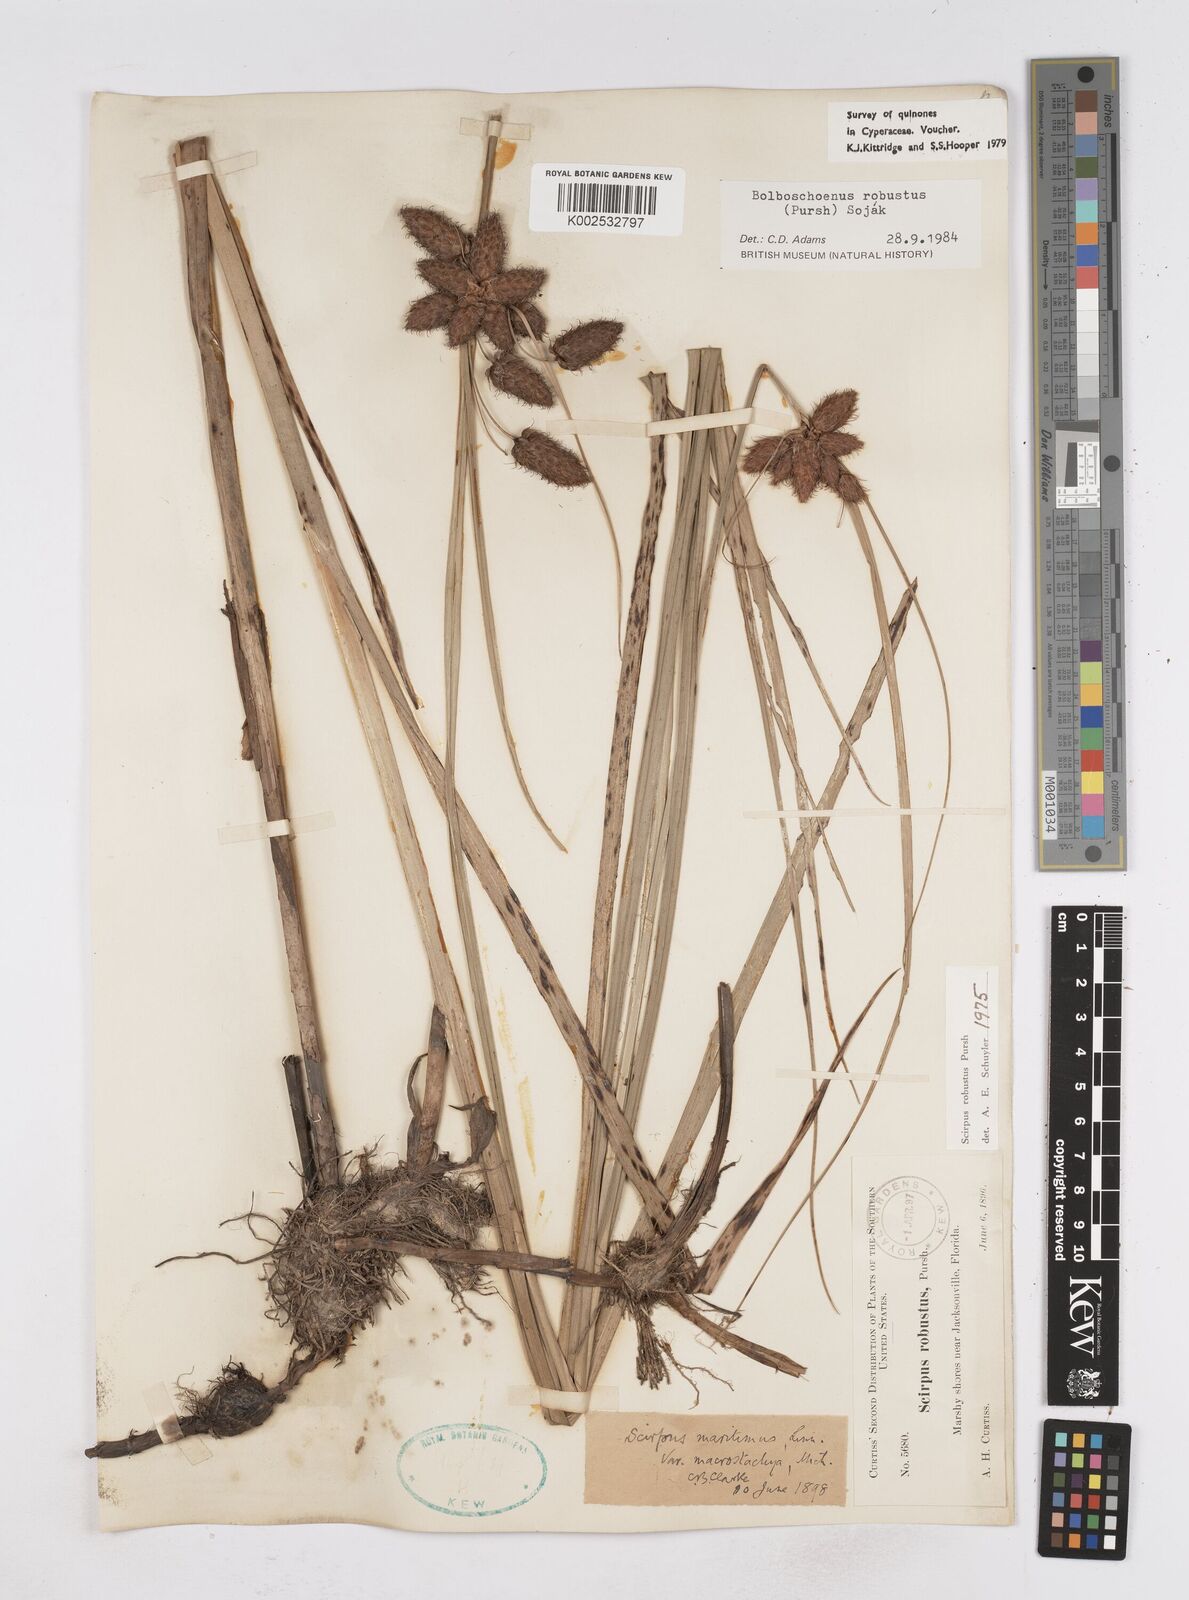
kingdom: Plantae
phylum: Tracheophyta
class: Liliopsida
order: Poales
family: Cyperaceae
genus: Bolboschoenus
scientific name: Bolboschoenus robustus
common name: Seacoast bulrush
